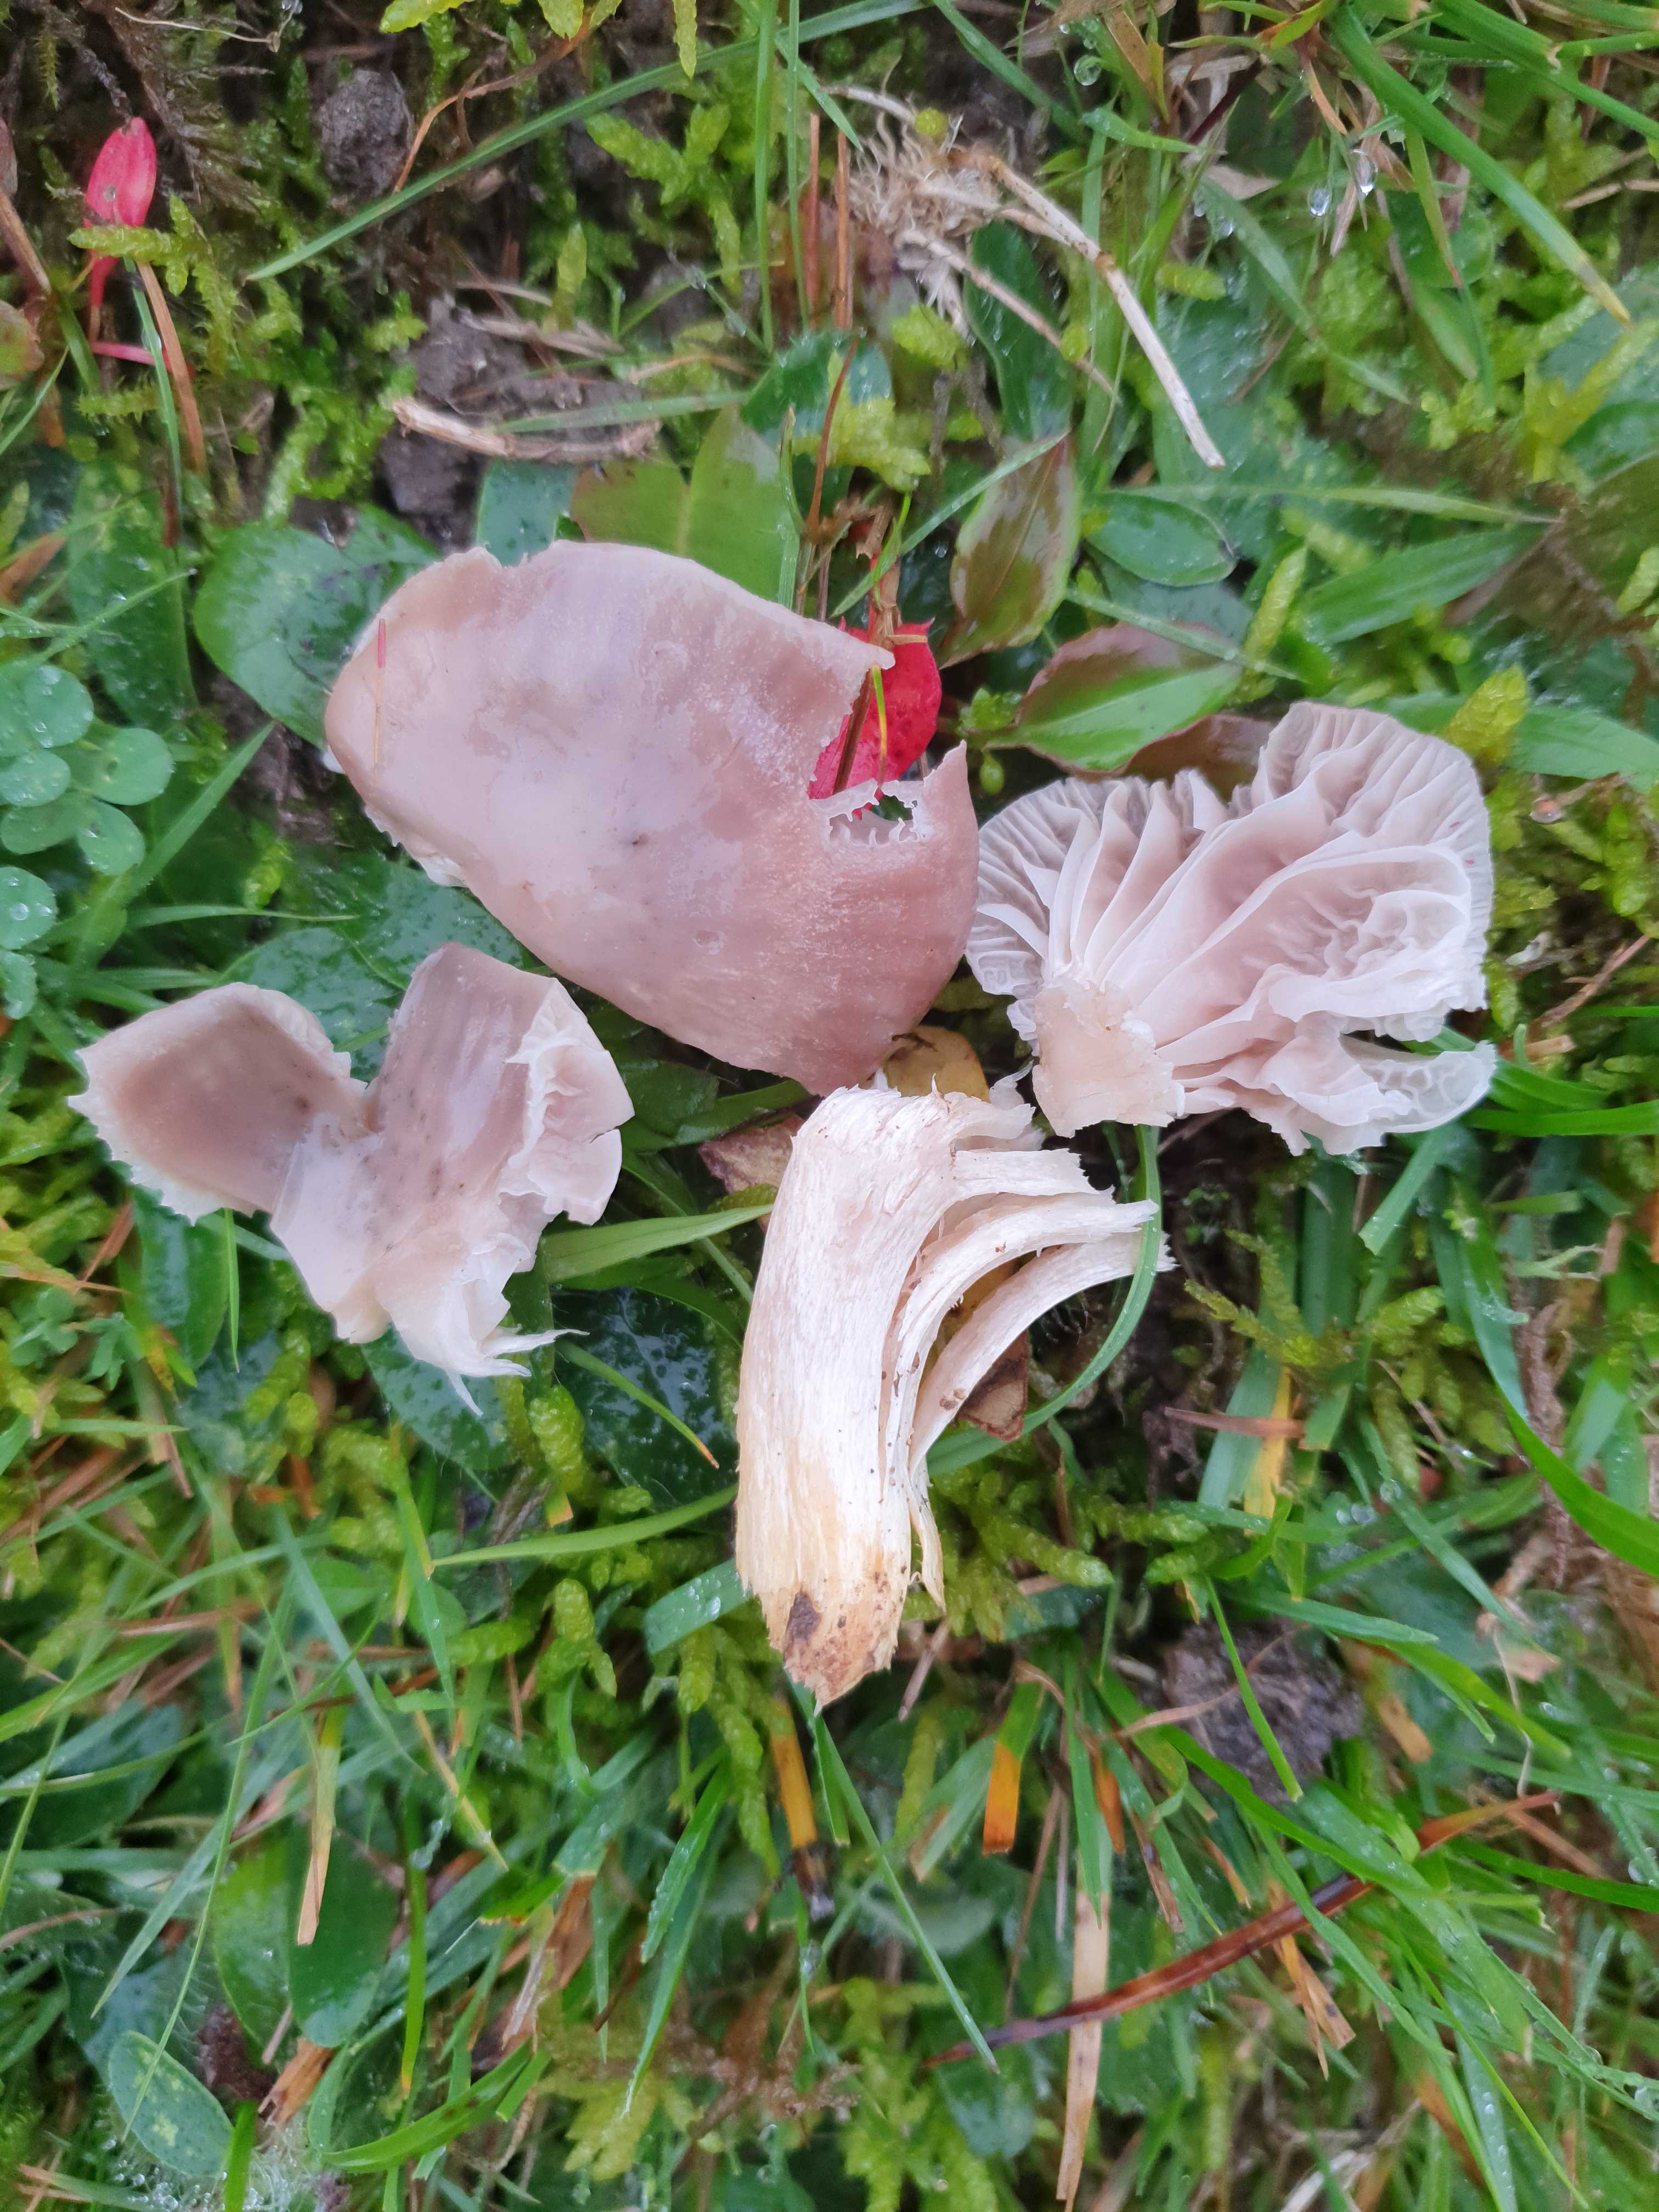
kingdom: Fungi
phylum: Basidiomycota
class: Agaricomycetes
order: Agaricales
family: Hygrophoraceae
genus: Cuphophyllus
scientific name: Cuphophyllus flavipes
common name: gulfodet vokshat
